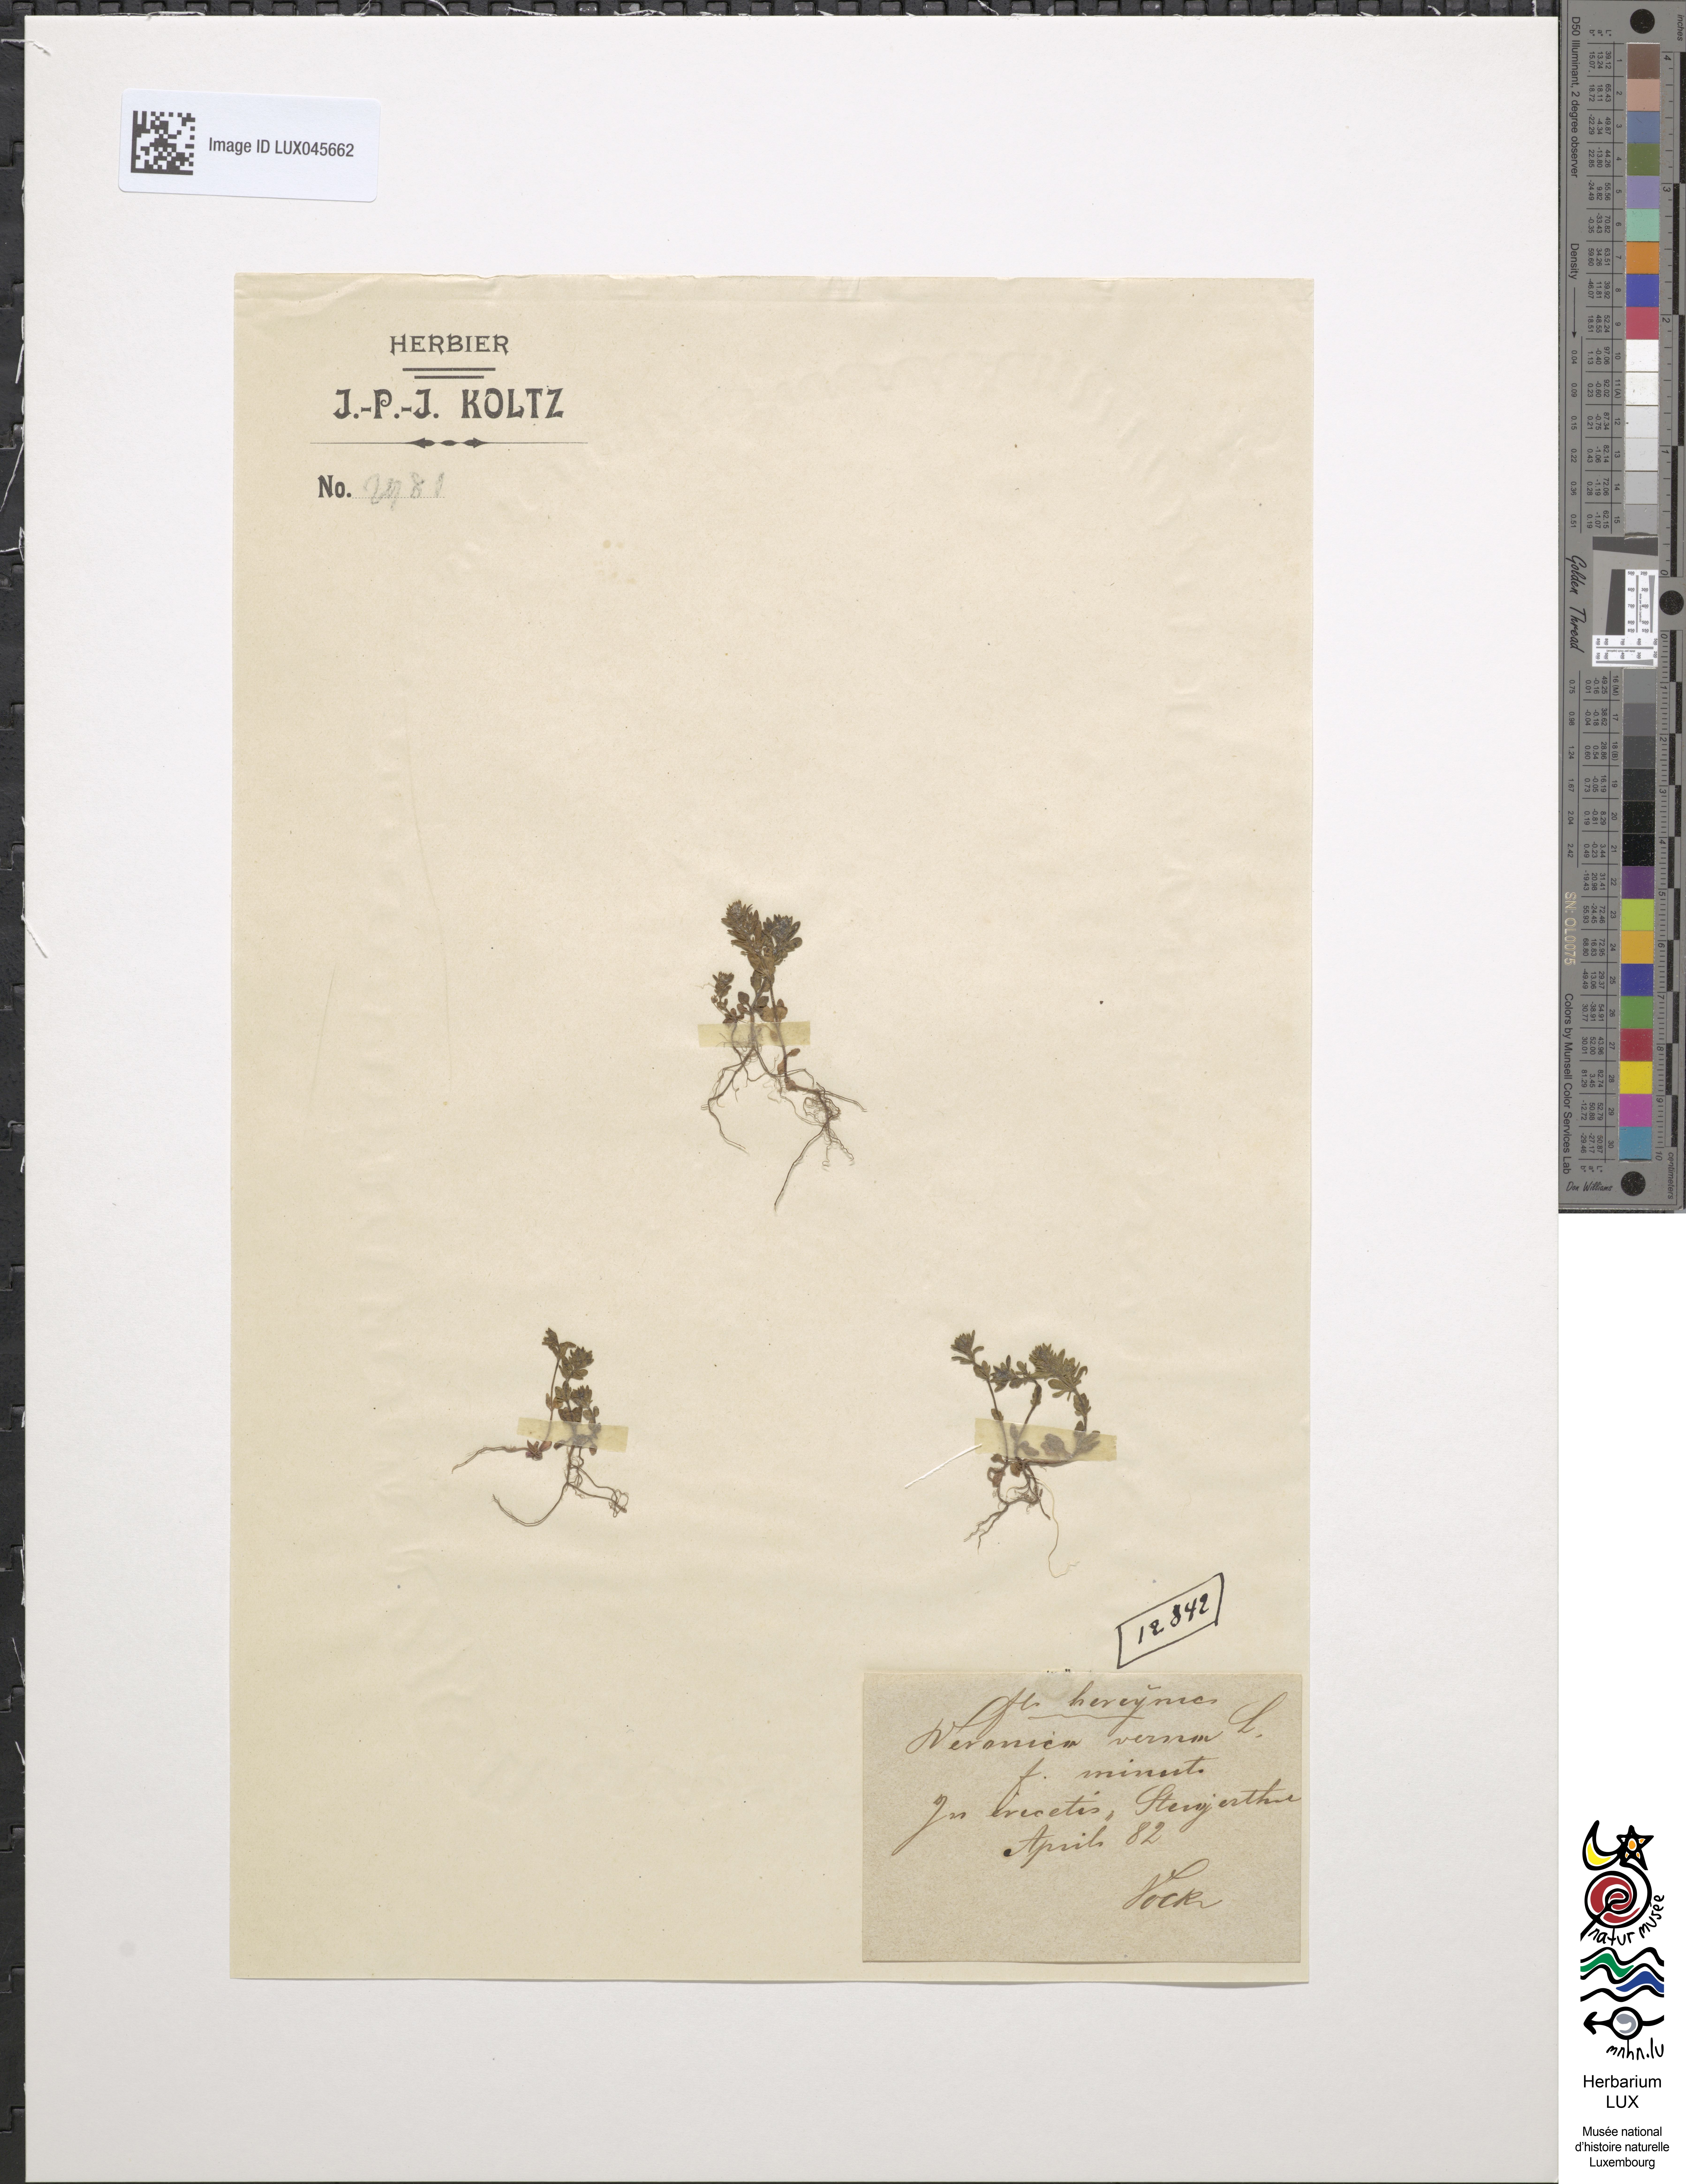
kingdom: Plantae
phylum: Tracheophyta
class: Magnoliopsida
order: Lamiales
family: Plantaginaceae
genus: Veronica
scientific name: Veronica verna
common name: Spring speedwell
